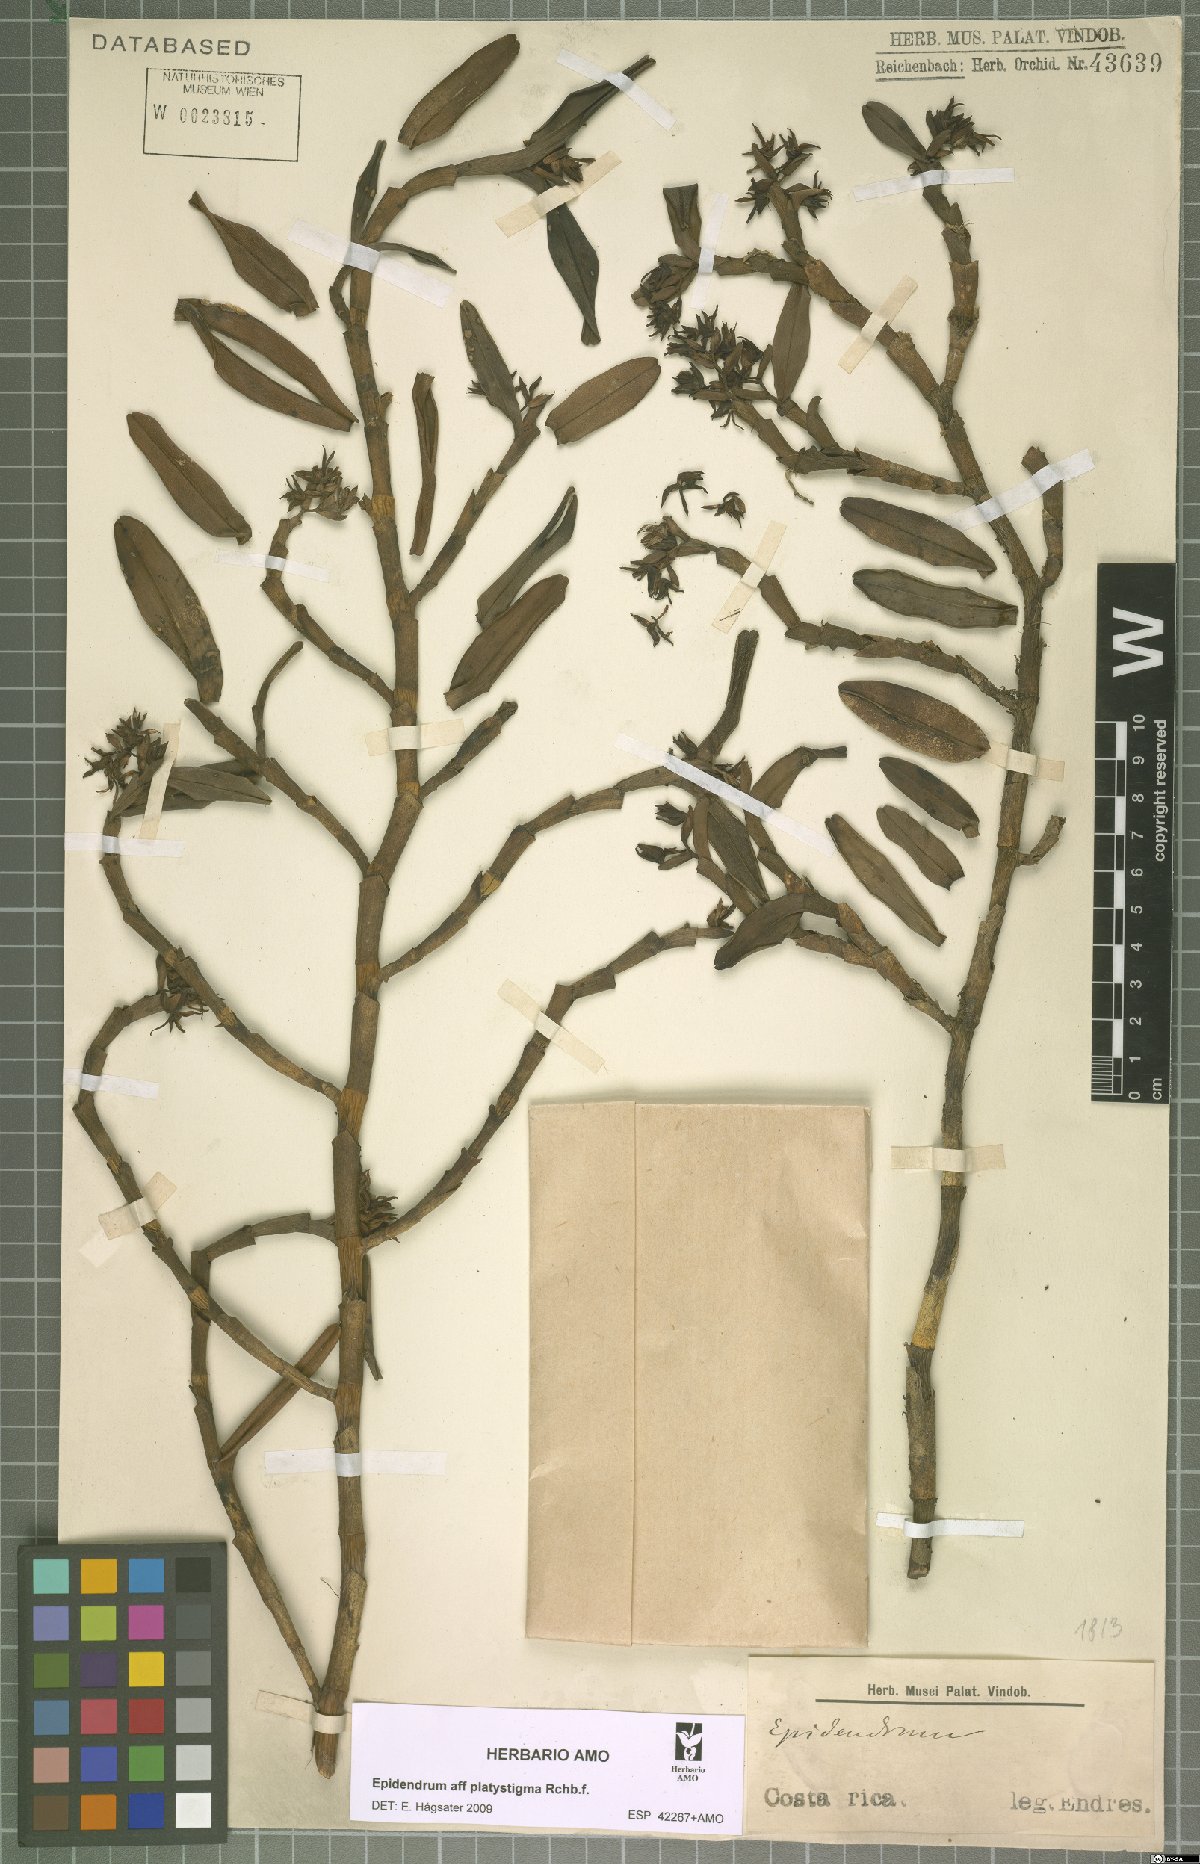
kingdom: Plantae
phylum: Tracheophyta
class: Liliopsida
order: Asparagales
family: Orchidaceae
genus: Epidendrum
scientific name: Epidendrum platystigma
